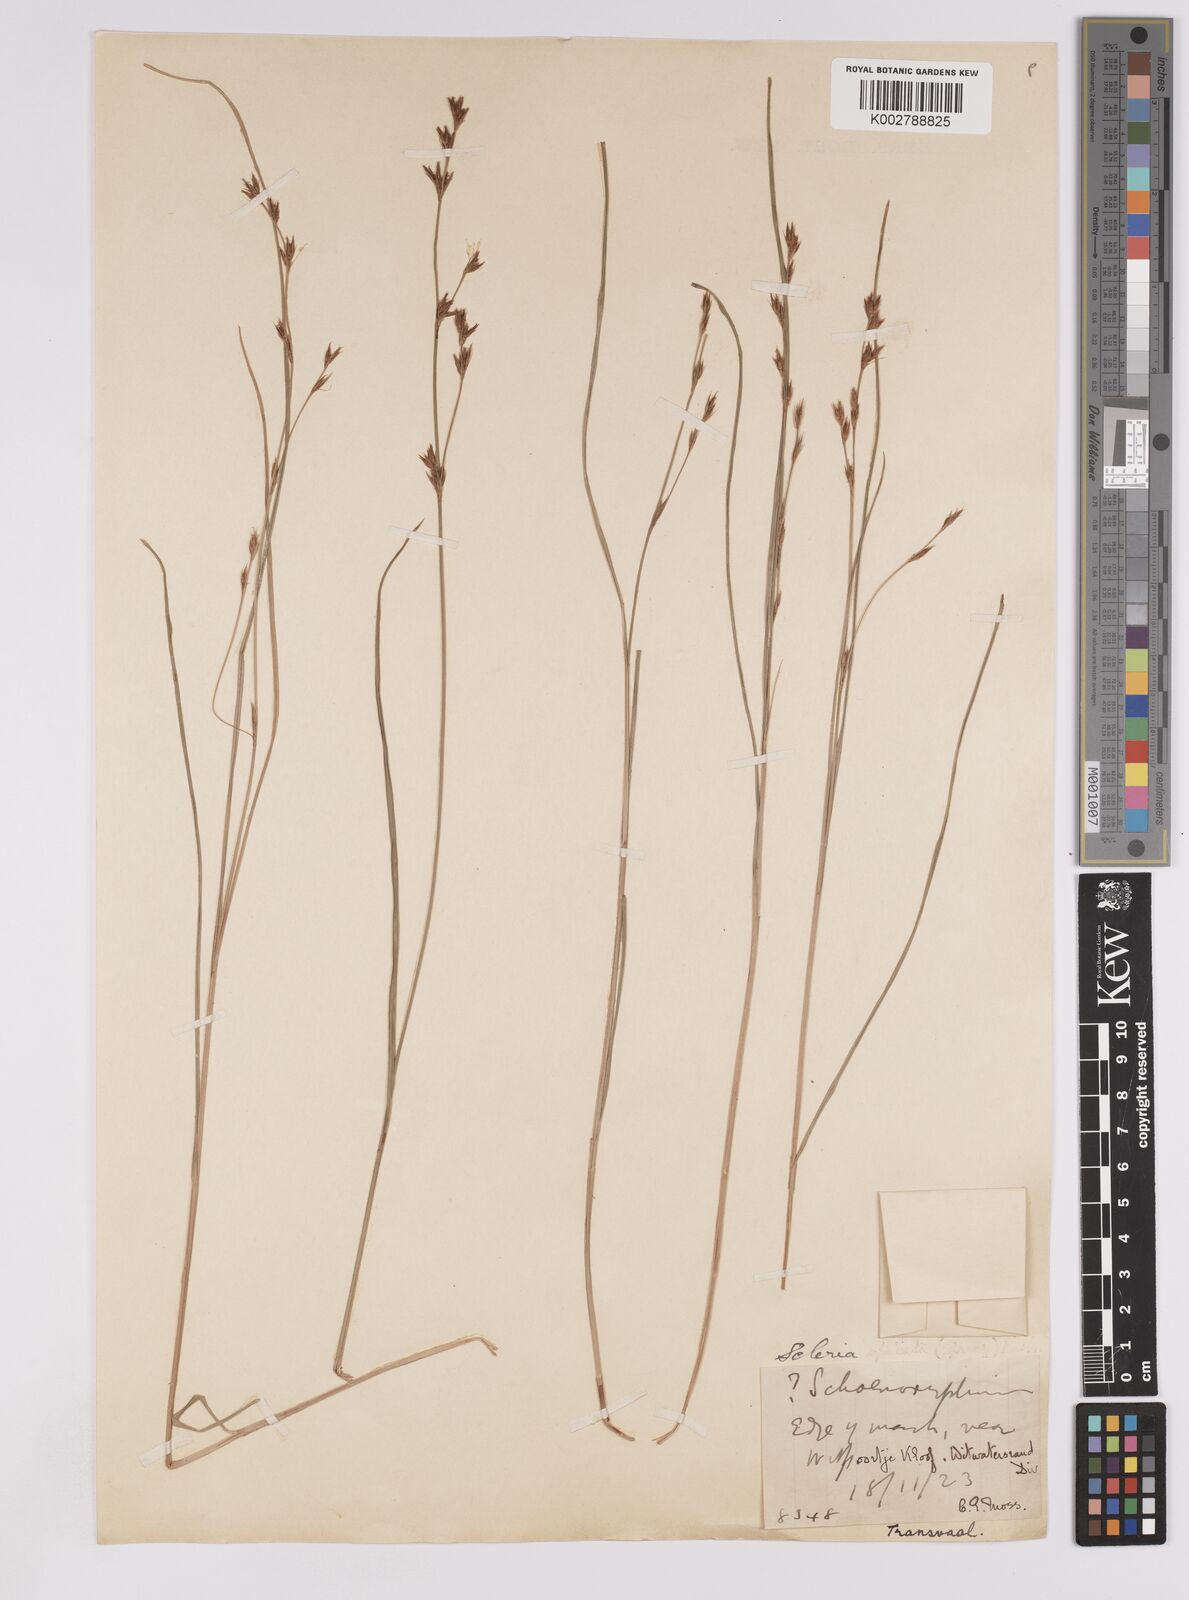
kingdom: Plantae
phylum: Tracheophyta
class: Liliopsida
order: Poales
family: Cyperaceae
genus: Scleria
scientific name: Scleria welwitschii
